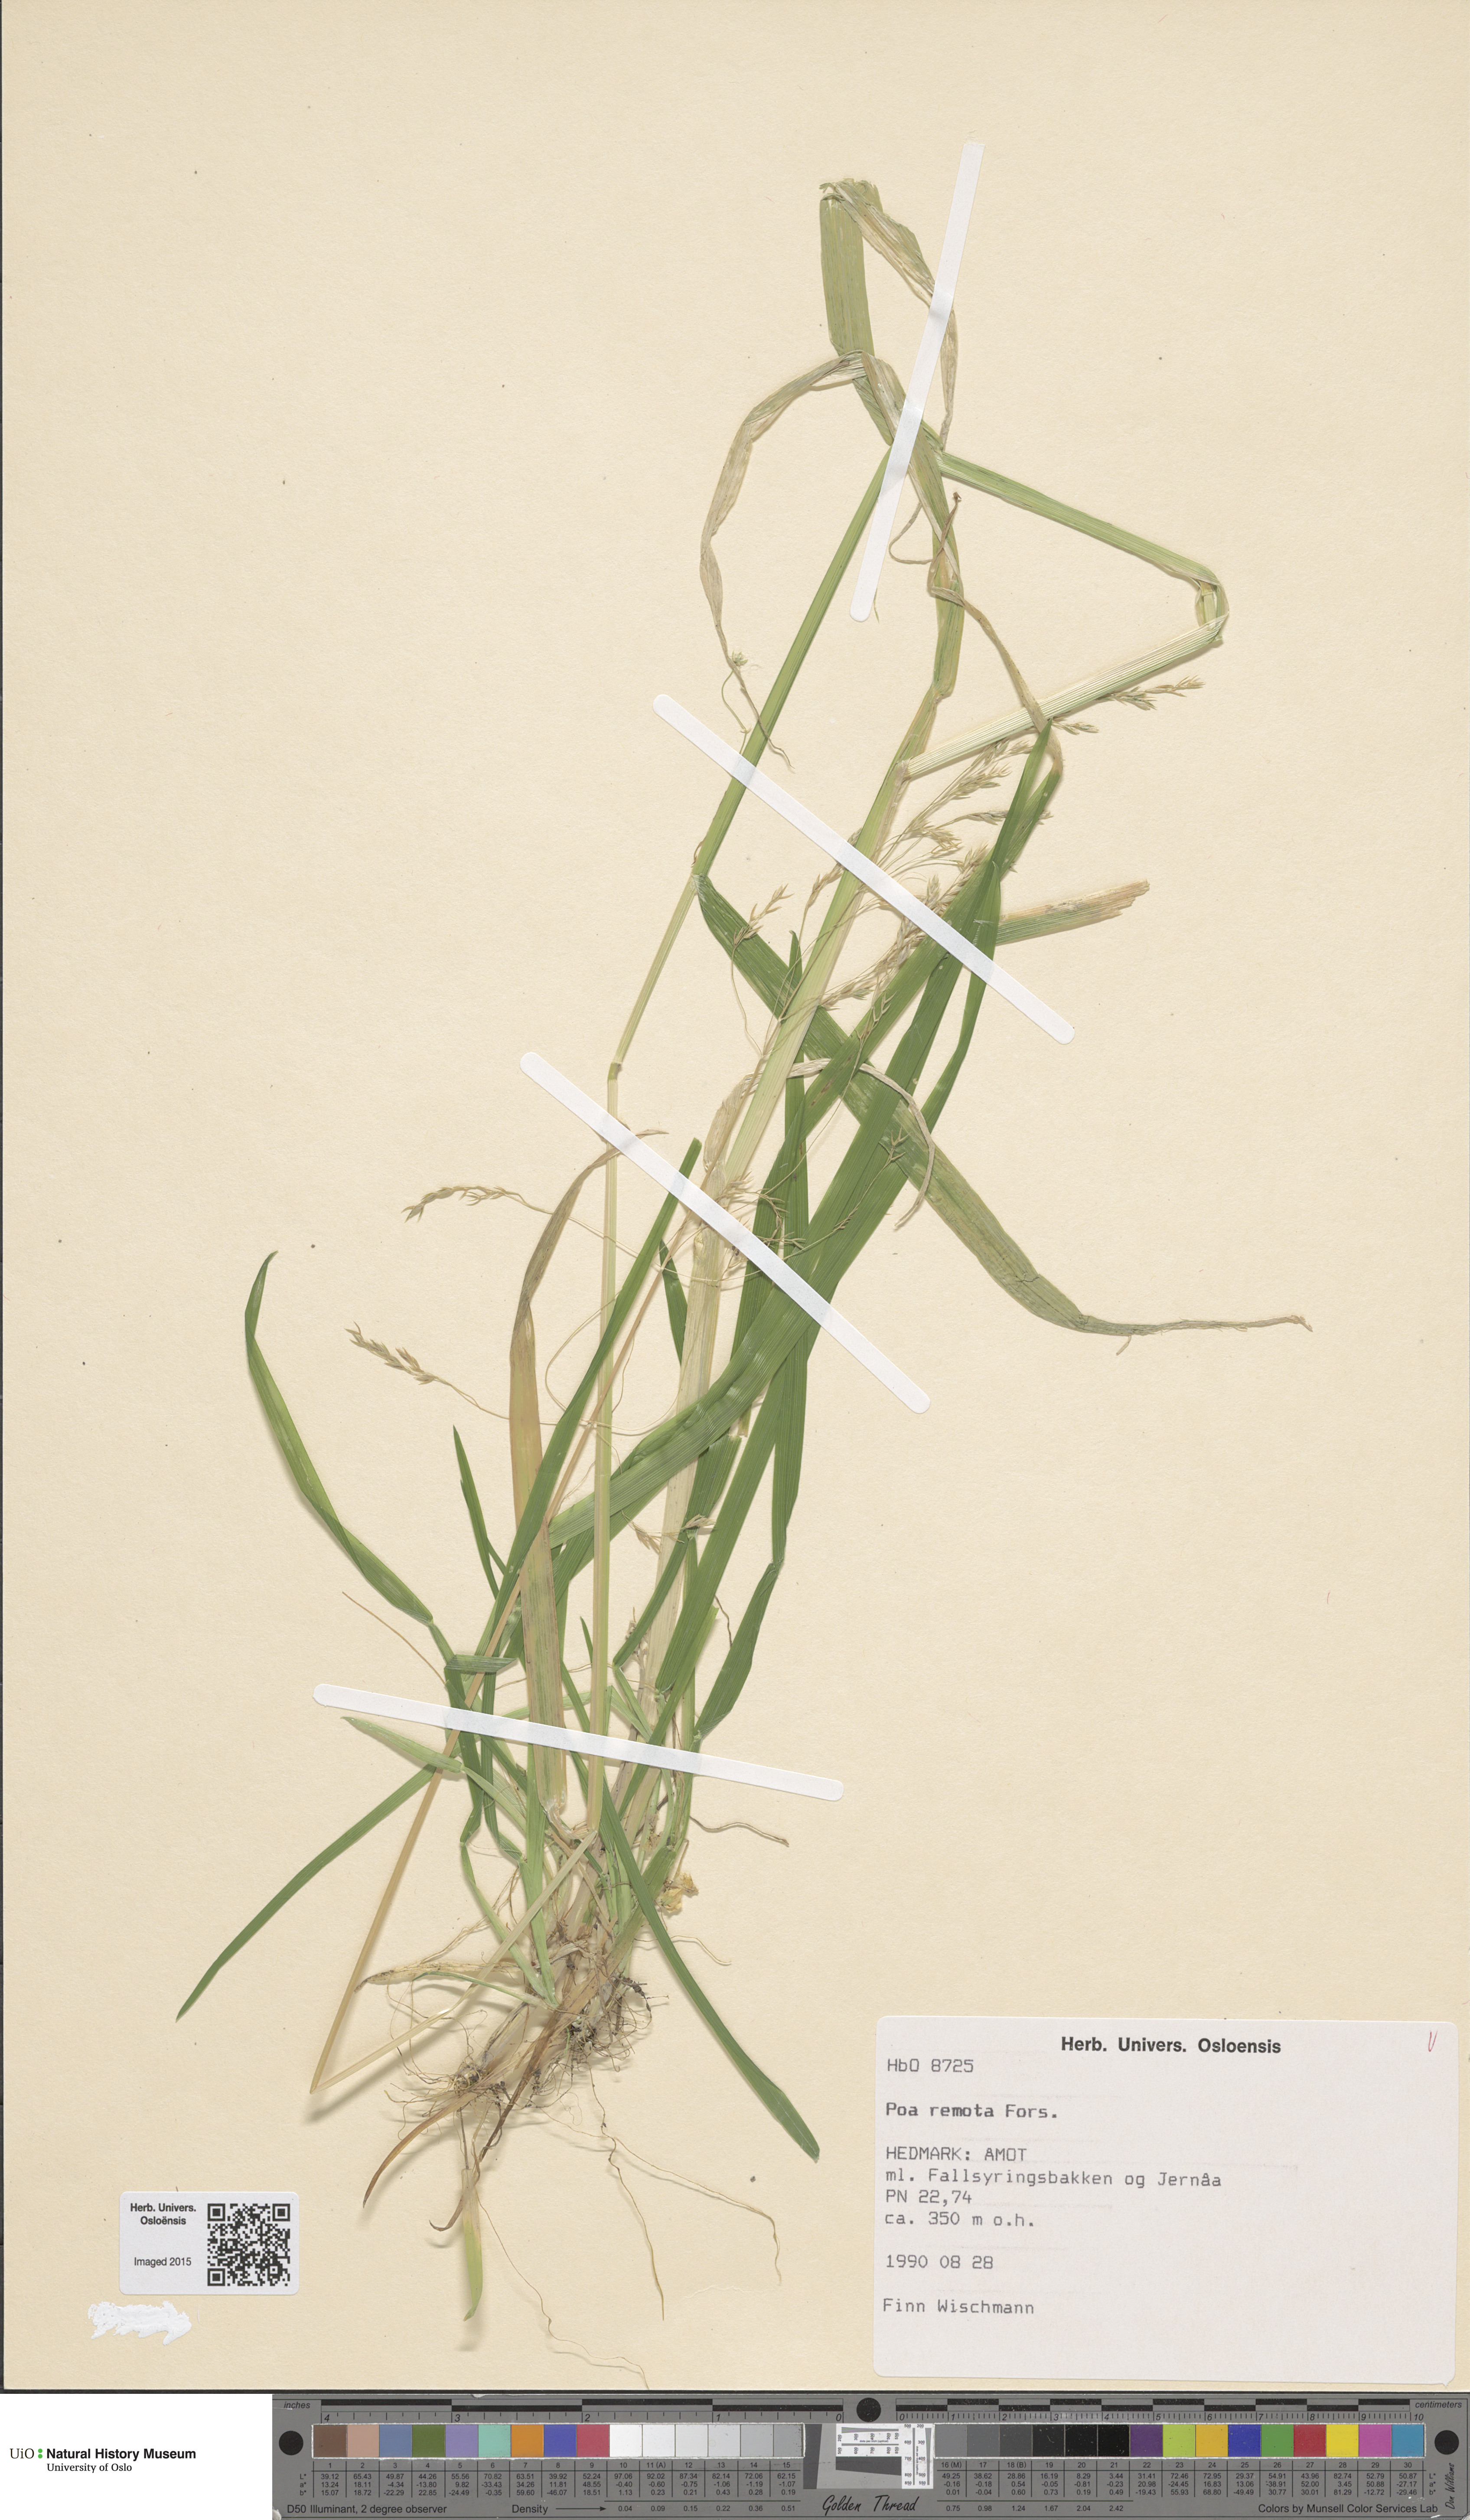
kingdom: Plantae
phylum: Tracheophyta
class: Liliopsida
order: Poales
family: Poaceae
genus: Poa
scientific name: Poa remota
